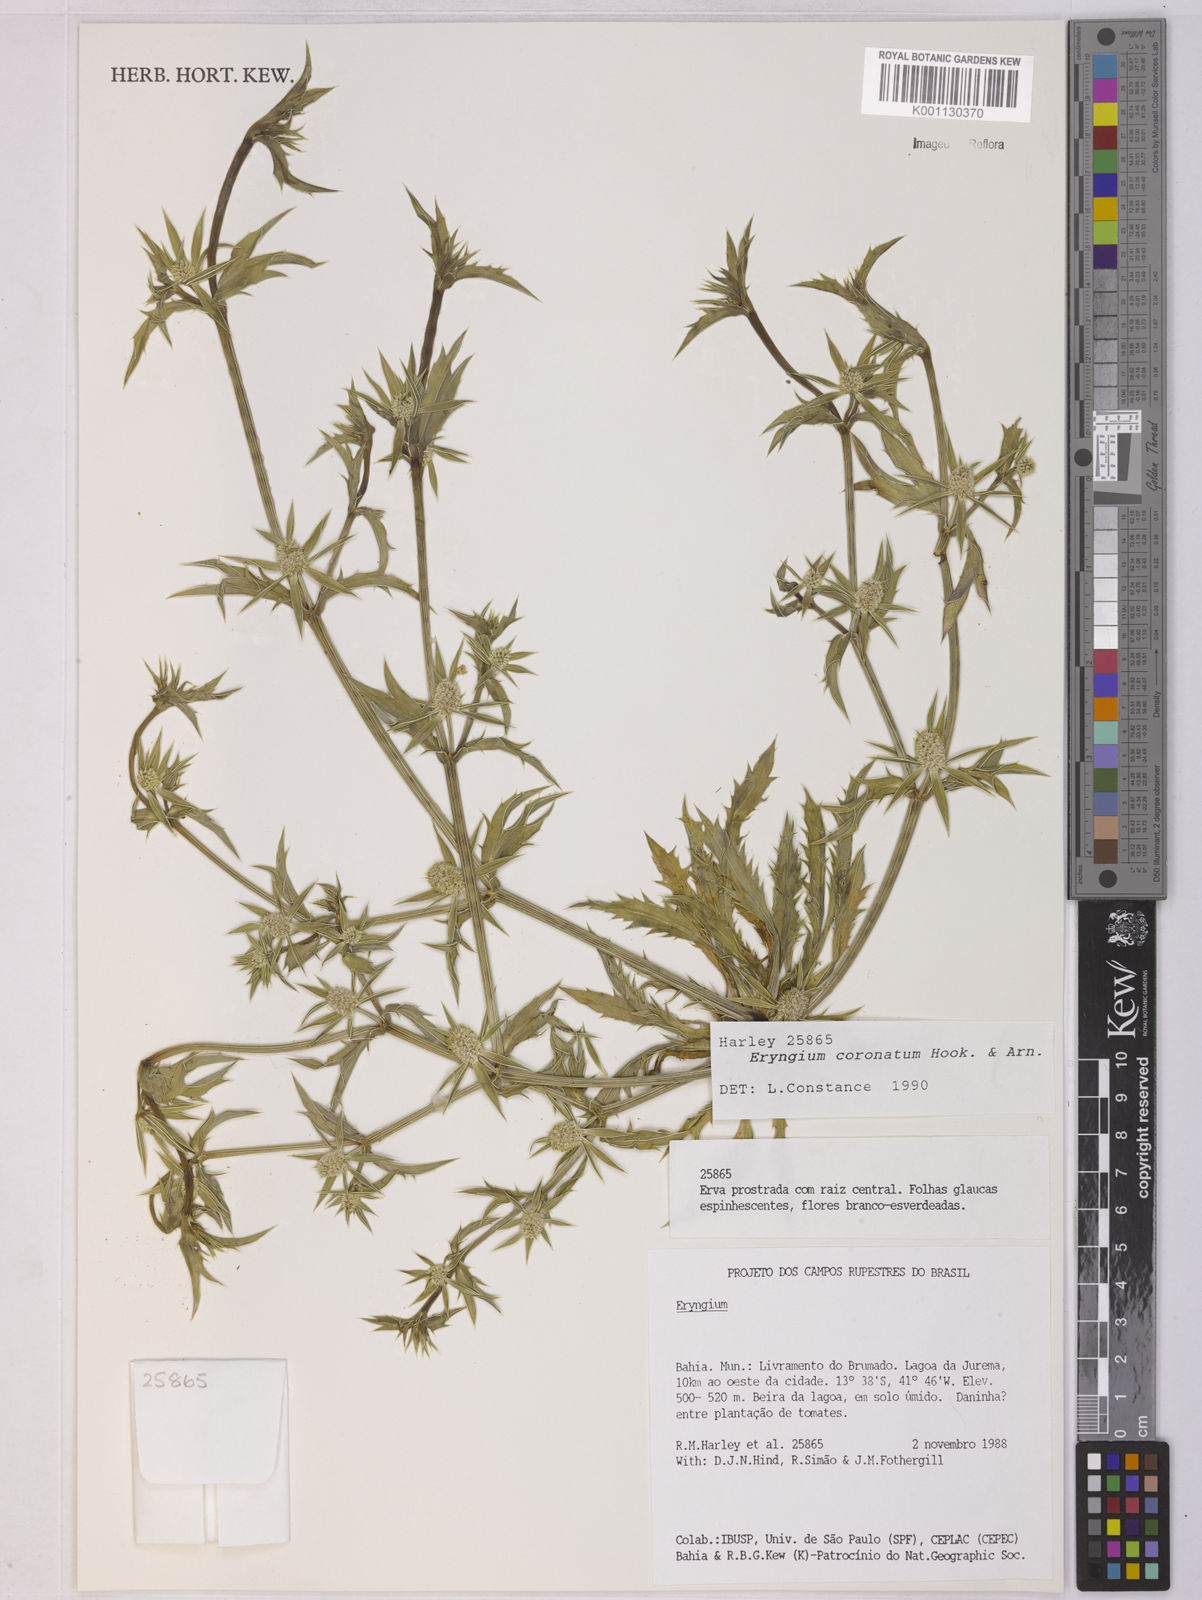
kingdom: Plantae
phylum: Tracheophyta
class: Magnoliopsida
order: Apiales
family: Apiaceae
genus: Eryngium
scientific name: Eryngium coronatum
